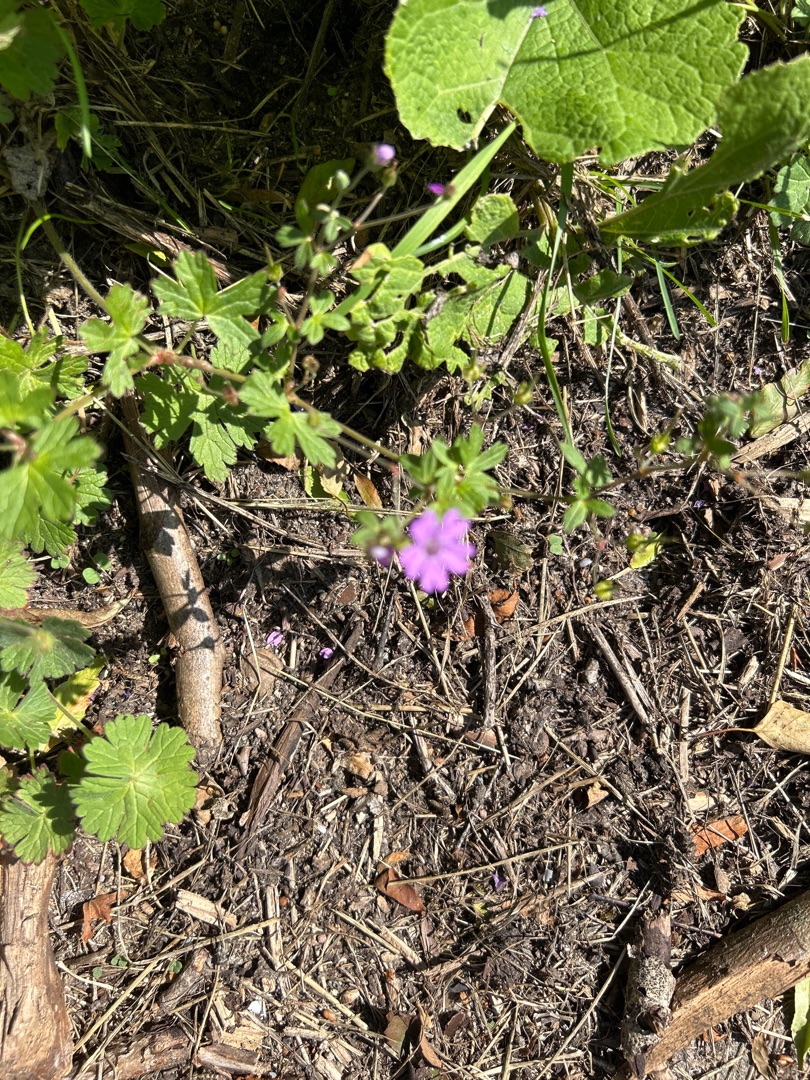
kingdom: Plantae
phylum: Tracheophyta
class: Magnoliopsida
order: Geraniales
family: Geraniaceae
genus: Geranium
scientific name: Geranium pyrenaicum
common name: Pyrenæisk storkenæb
